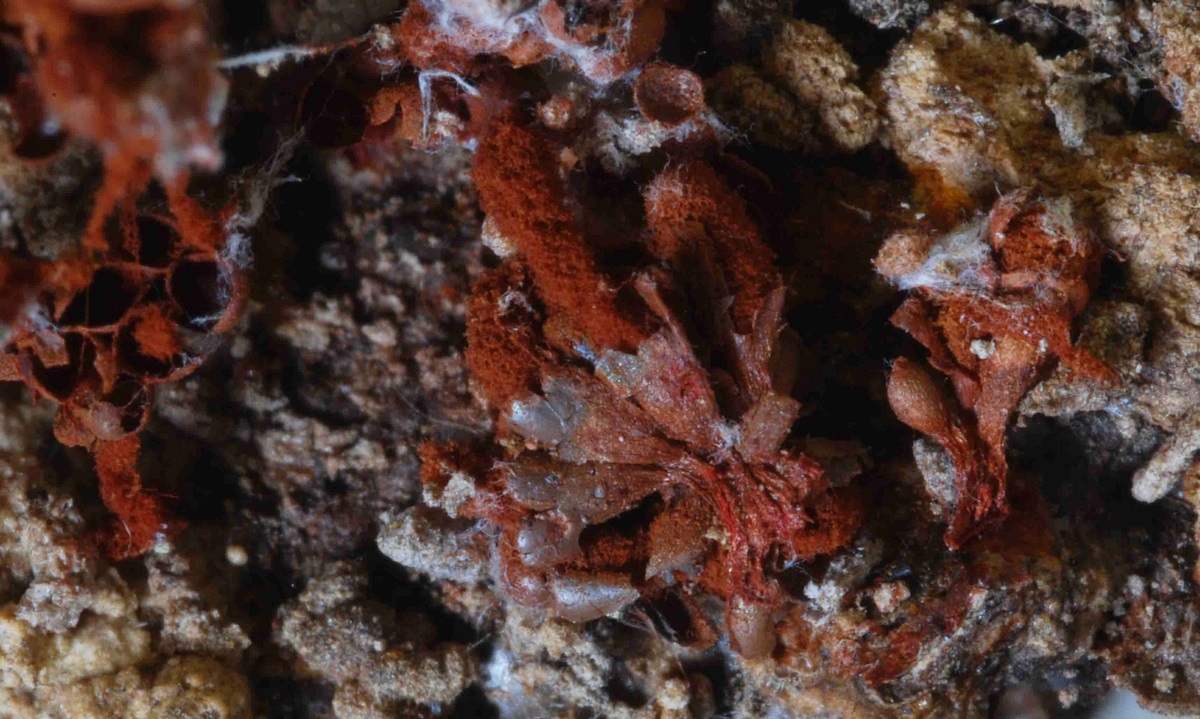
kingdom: Protozoa
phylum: Mycetozoa
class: Myxomycetes
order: Trichiales
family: Trichiaceae
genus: Metatrichia
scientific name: Metatrichia vesparia
